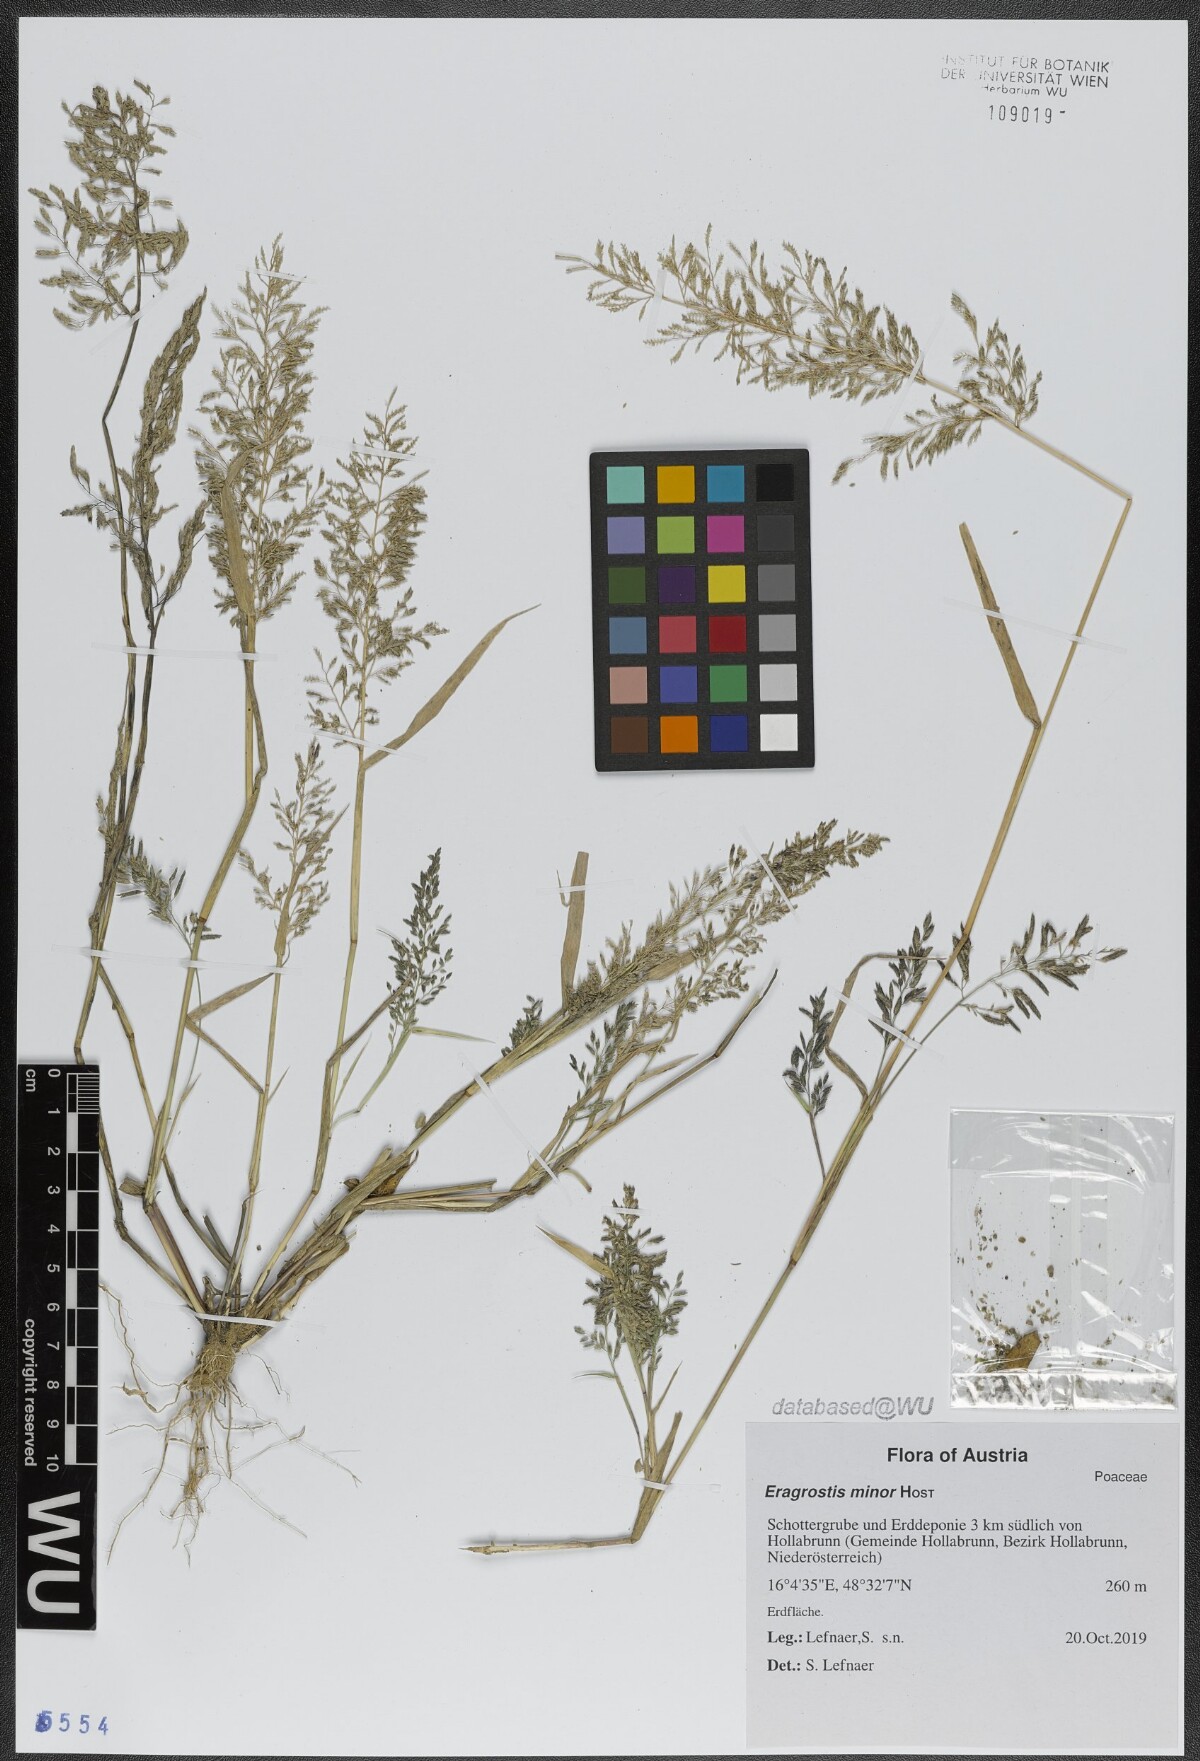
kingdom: Plantae
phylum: Tracheophyta
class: Liliopsida
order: Poales
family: Poaceae
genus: Eragrostis
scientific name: Eragrostis minor
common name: Small love-grass
